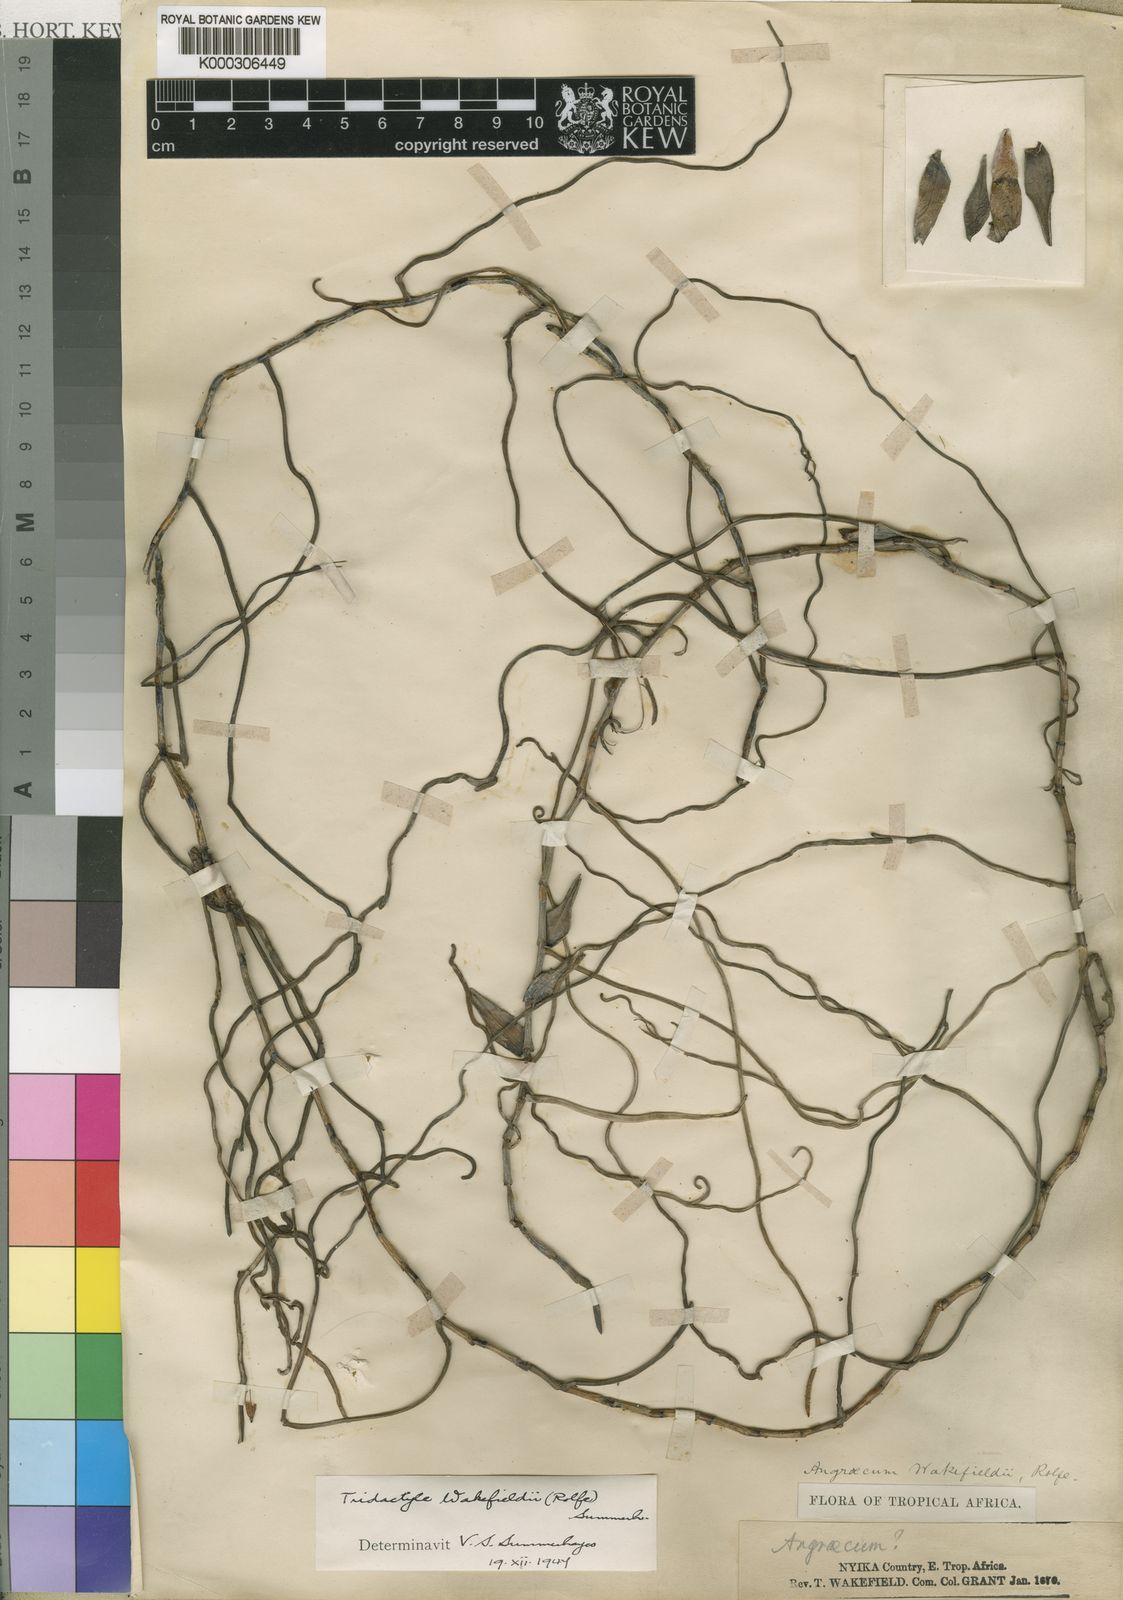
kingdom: Plantae
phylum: Tracheophyta
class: Liliopsida
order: Asparagales
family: Orchidaceae
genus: Solenangis
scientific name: Solenangis wakefieldii
